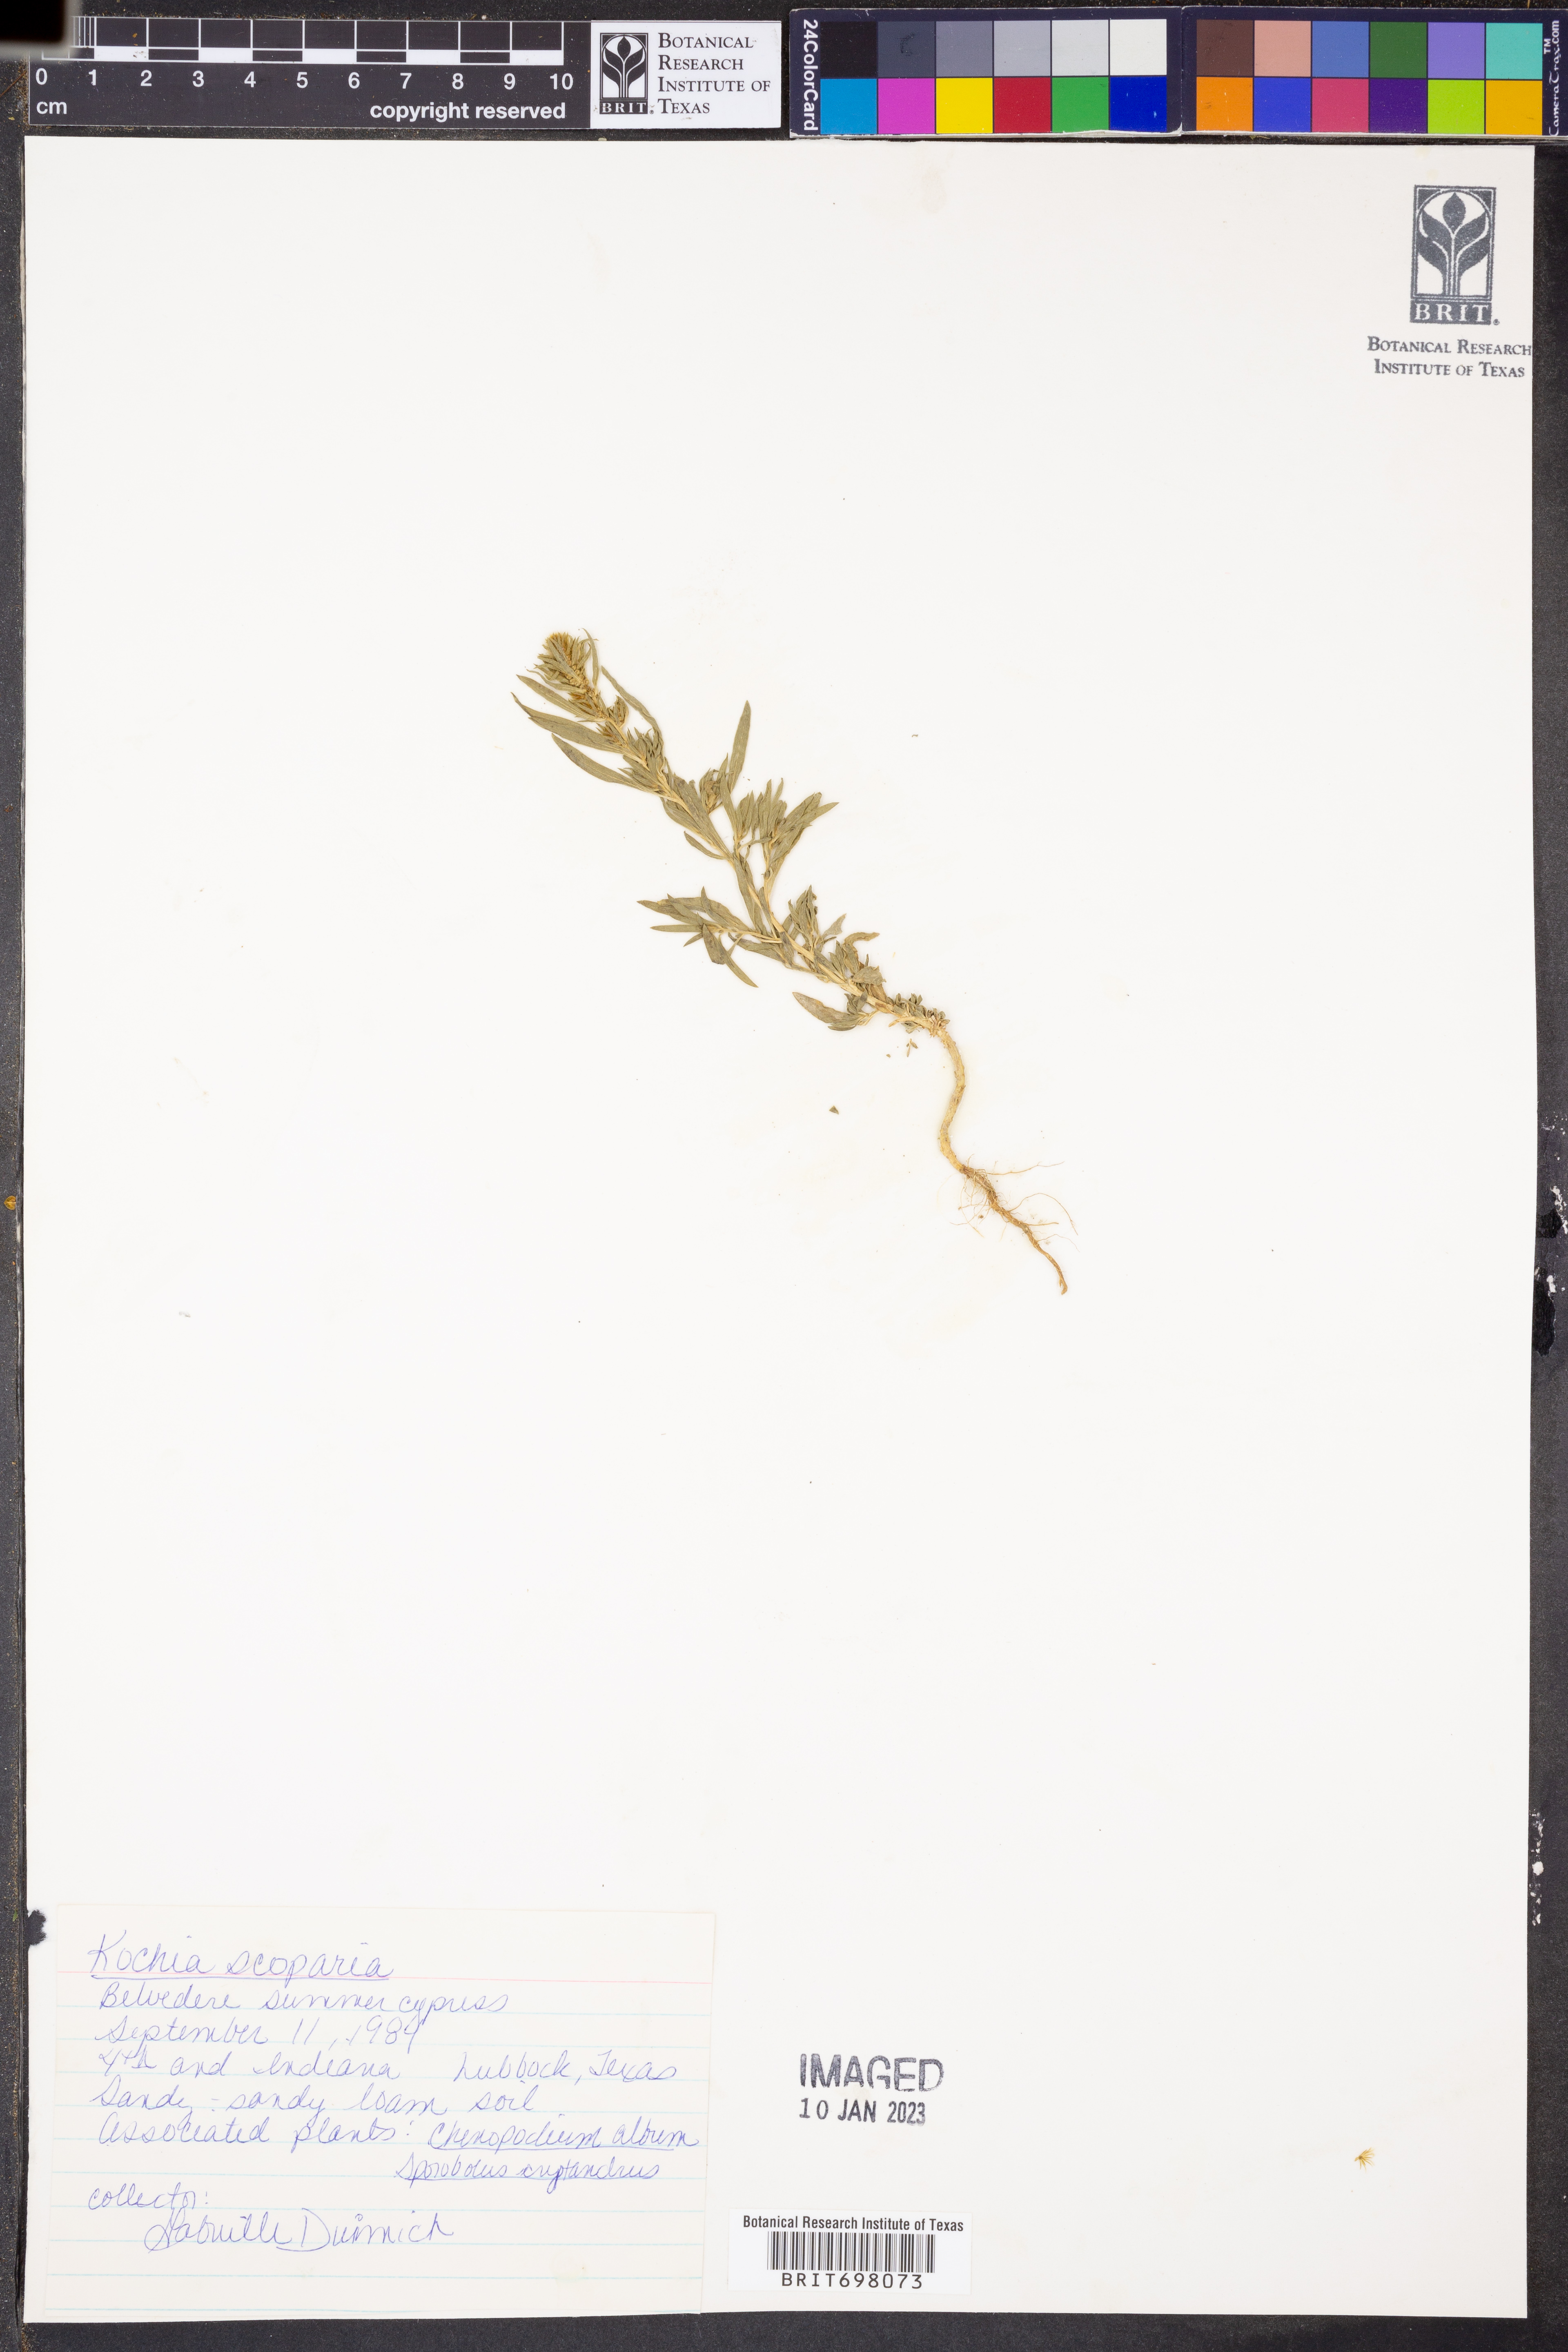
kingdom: Plantae
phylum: Tracheophyta
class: Magnoliopsida
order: Caryophyllales
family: Amaranthaceae
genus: Bassia
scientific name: Bassia scoparia
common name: Belvedere
